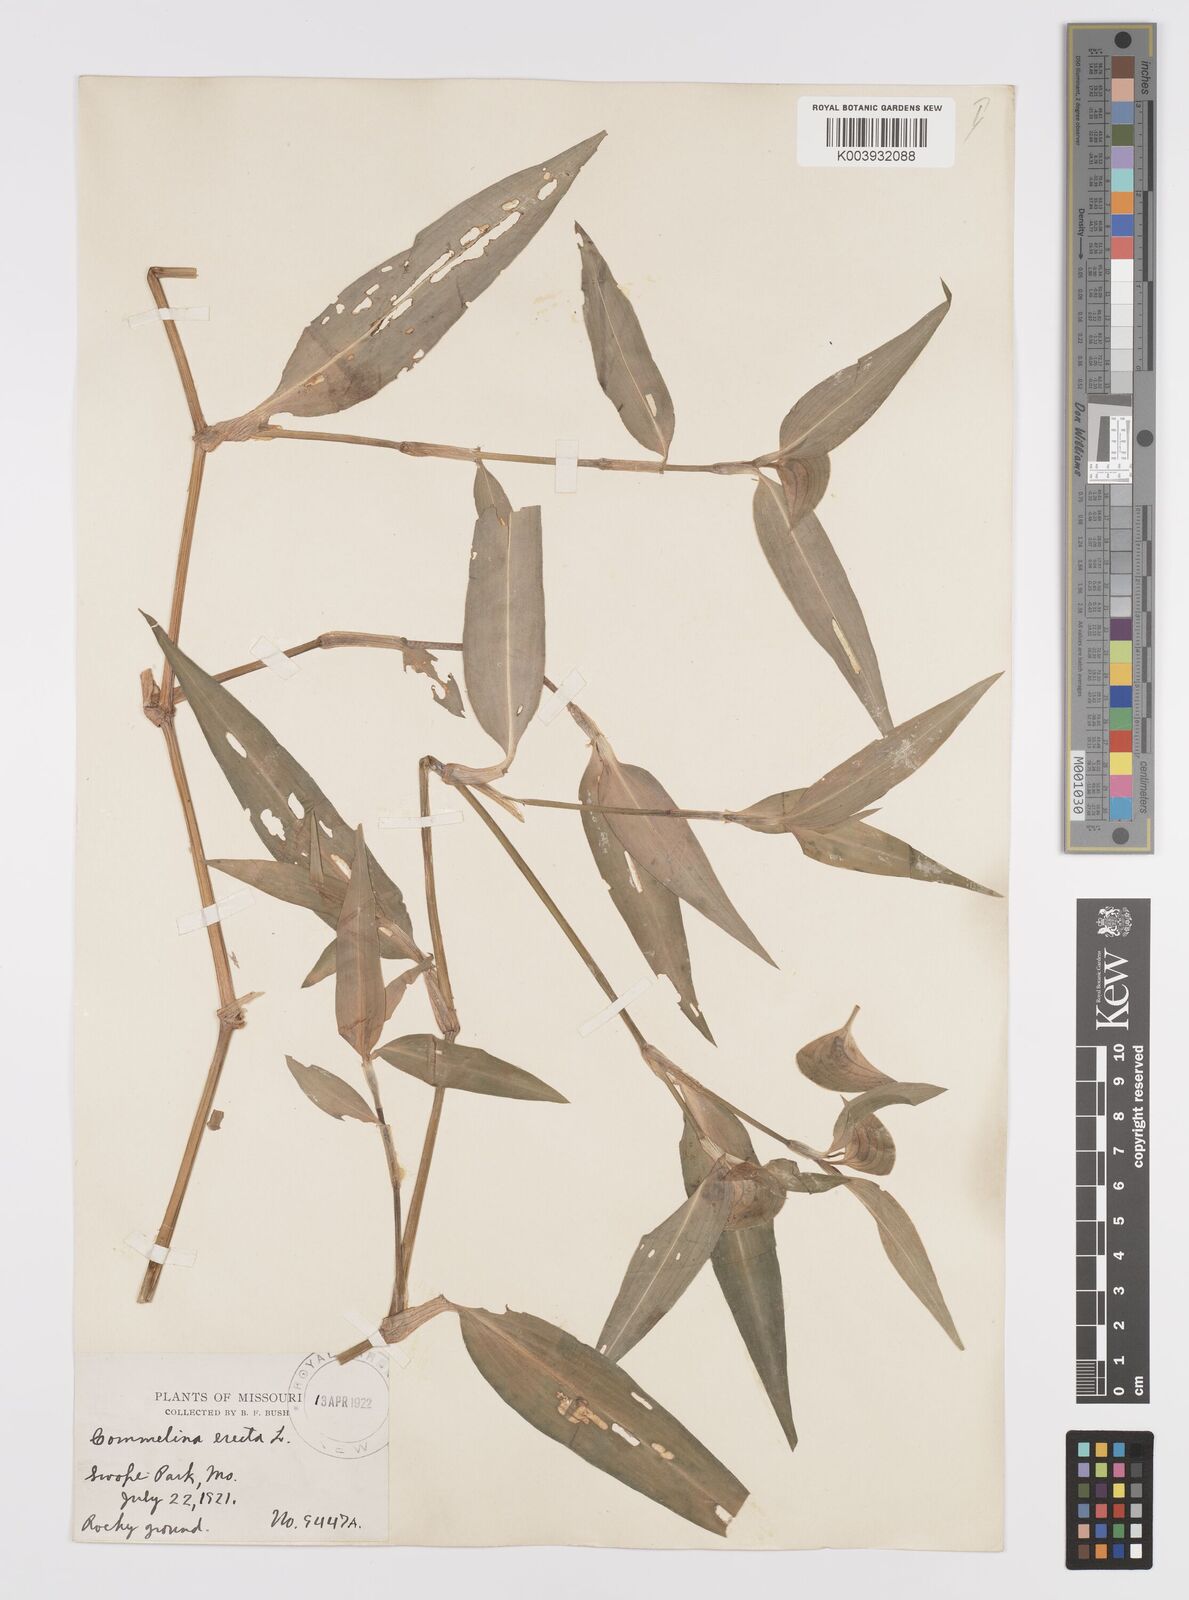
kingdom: Plantae
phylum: Tracheophyta
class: Liliopsida
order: Commelinales
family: Commelinaceae
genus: Commelina
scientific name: Commelina erecta
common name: Blousel blommetjie
